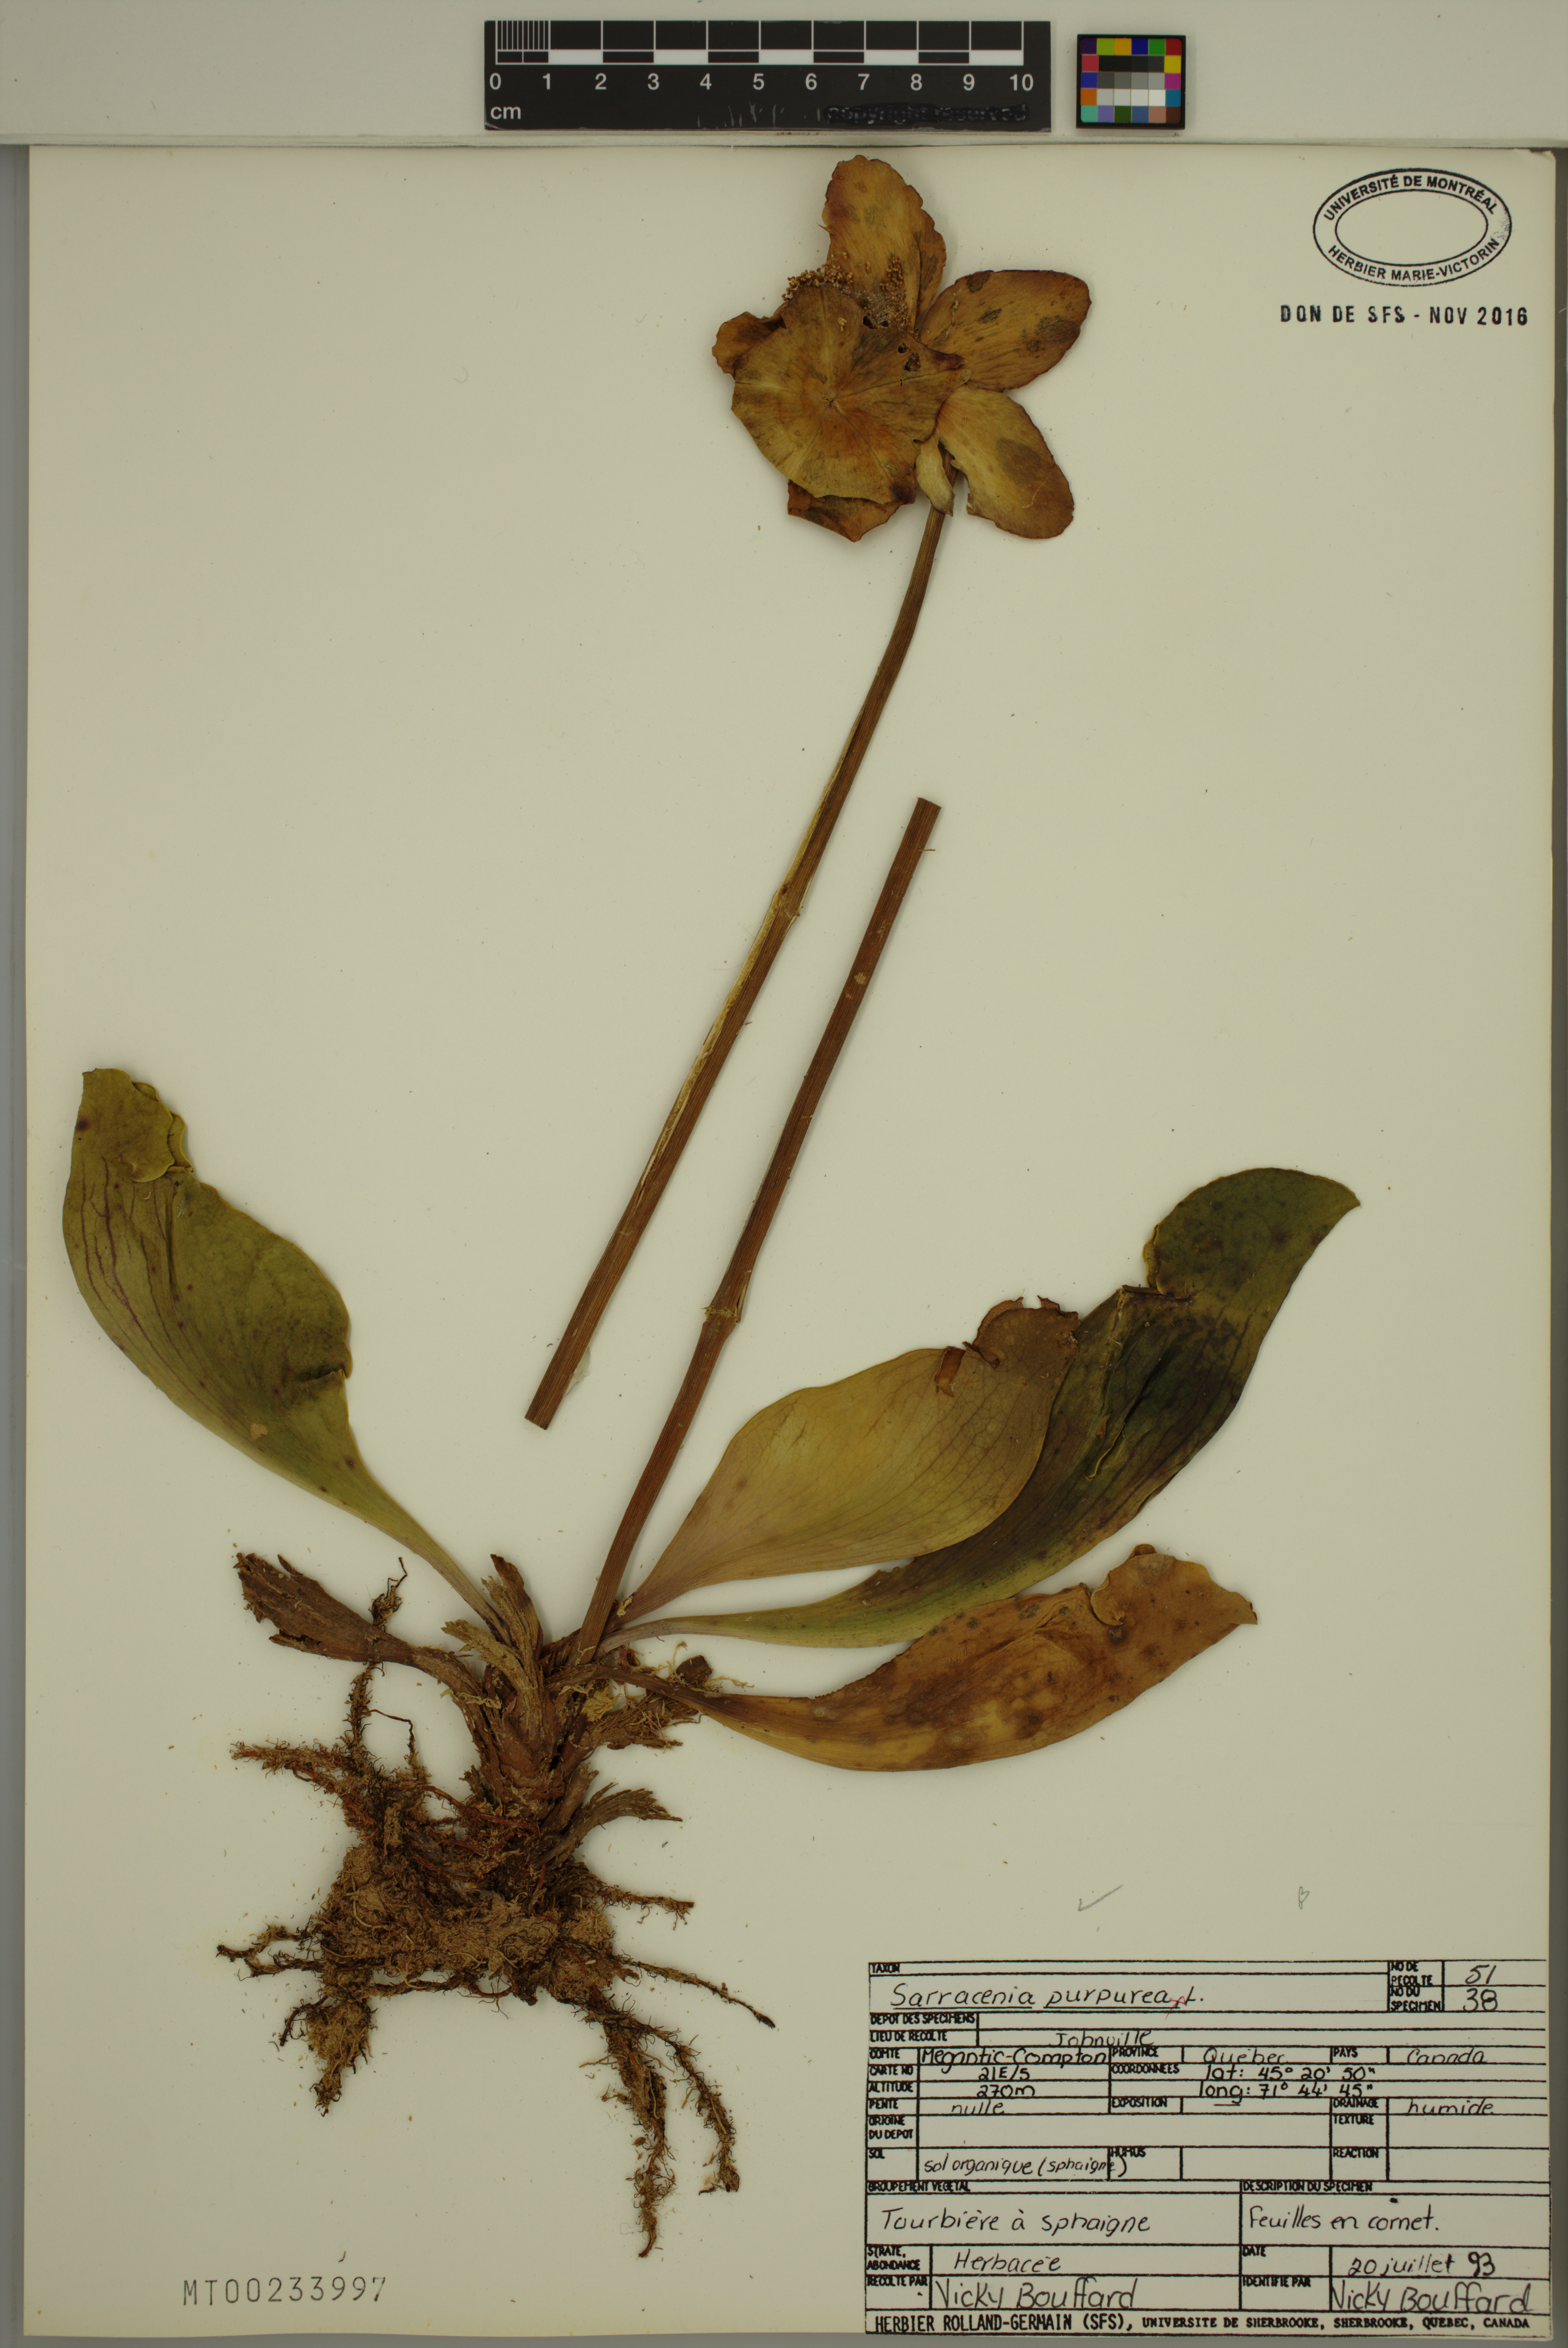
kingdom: Plantae
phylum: Tracheophyta
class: Magnoliopsida
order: Ericales
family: Sarraceniaceae
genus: Sarracenia
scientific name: Sarracenia purpurea
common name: Pitcherplant
